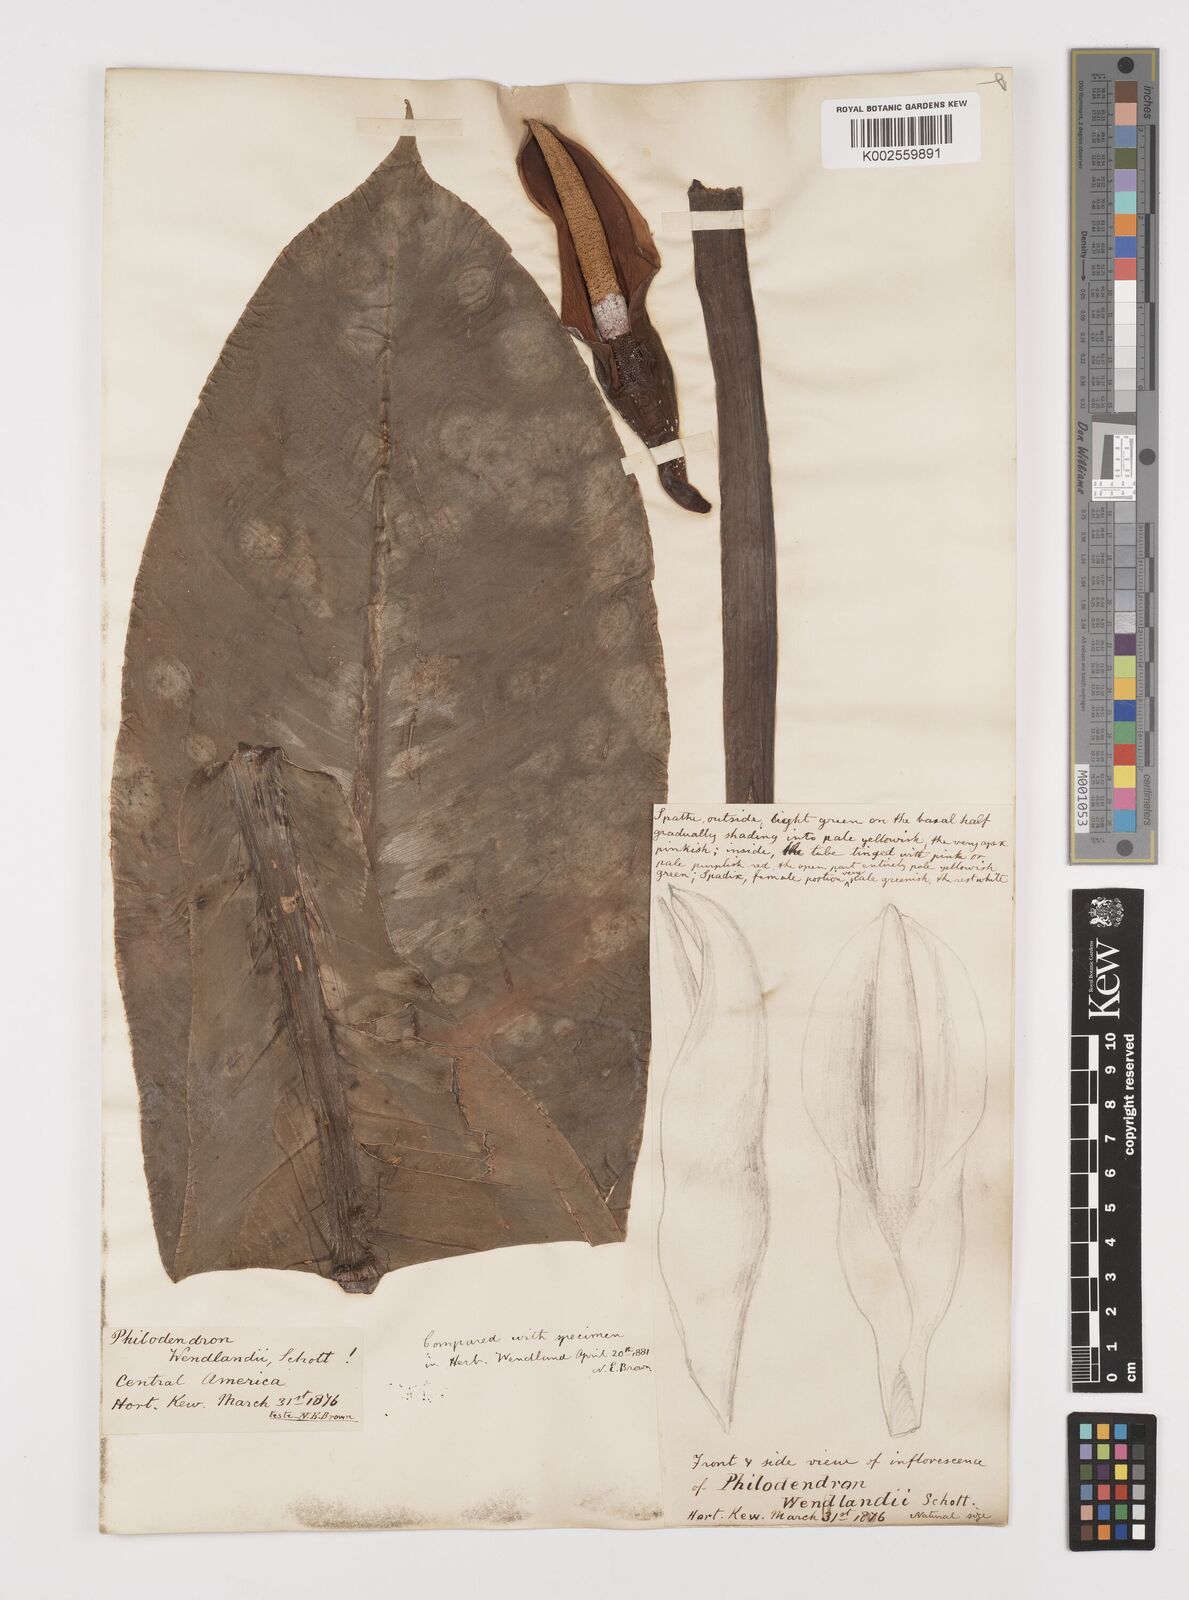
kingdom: Plantae
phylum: Tracheophyta
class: Liliopsida
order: Alismatales
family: Araceae
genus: Philodendron
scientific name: Philodendron wendlandii
